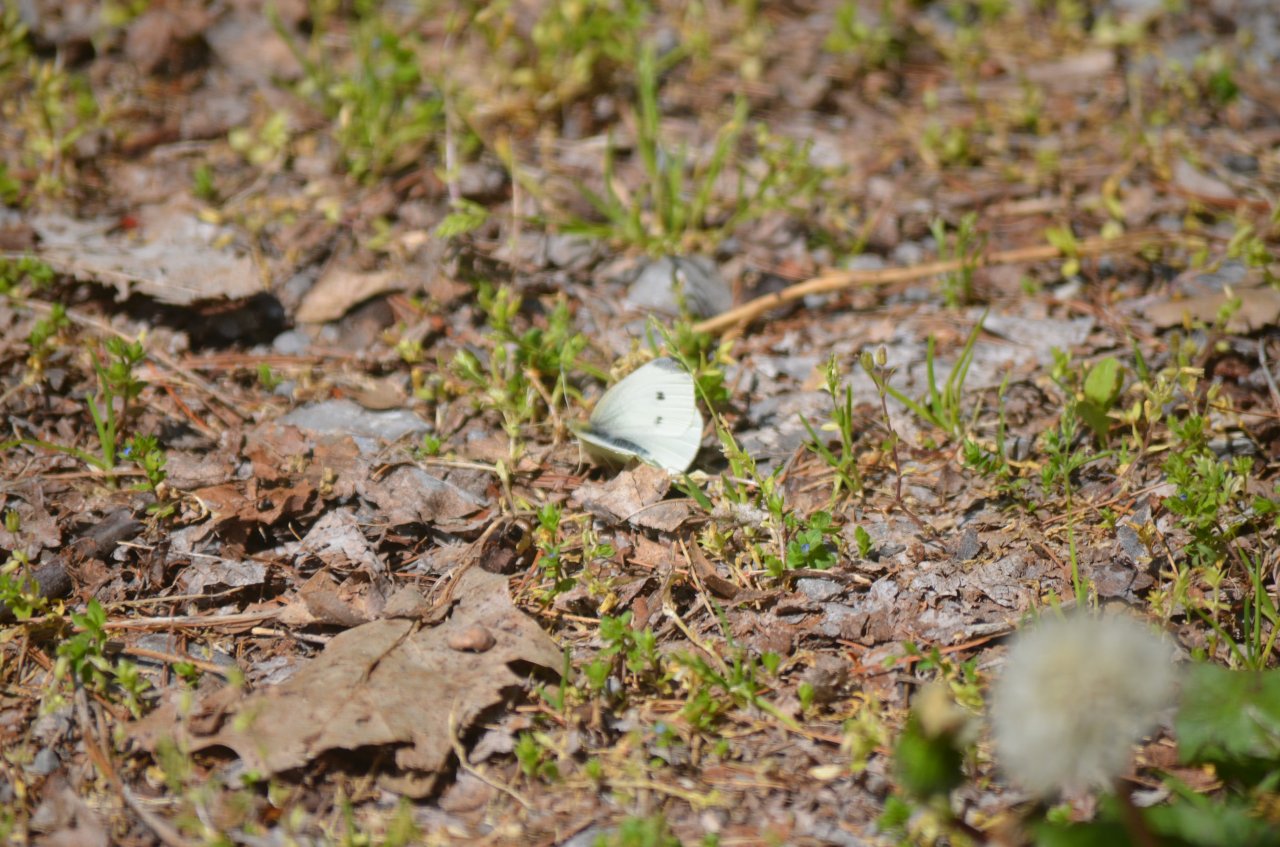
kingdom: Animalia
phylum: Arthropoda
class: Insecta
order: Lepidoptera
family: Pieridae
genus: Pieris
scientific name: Pieris rapae
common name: Cabbage White
